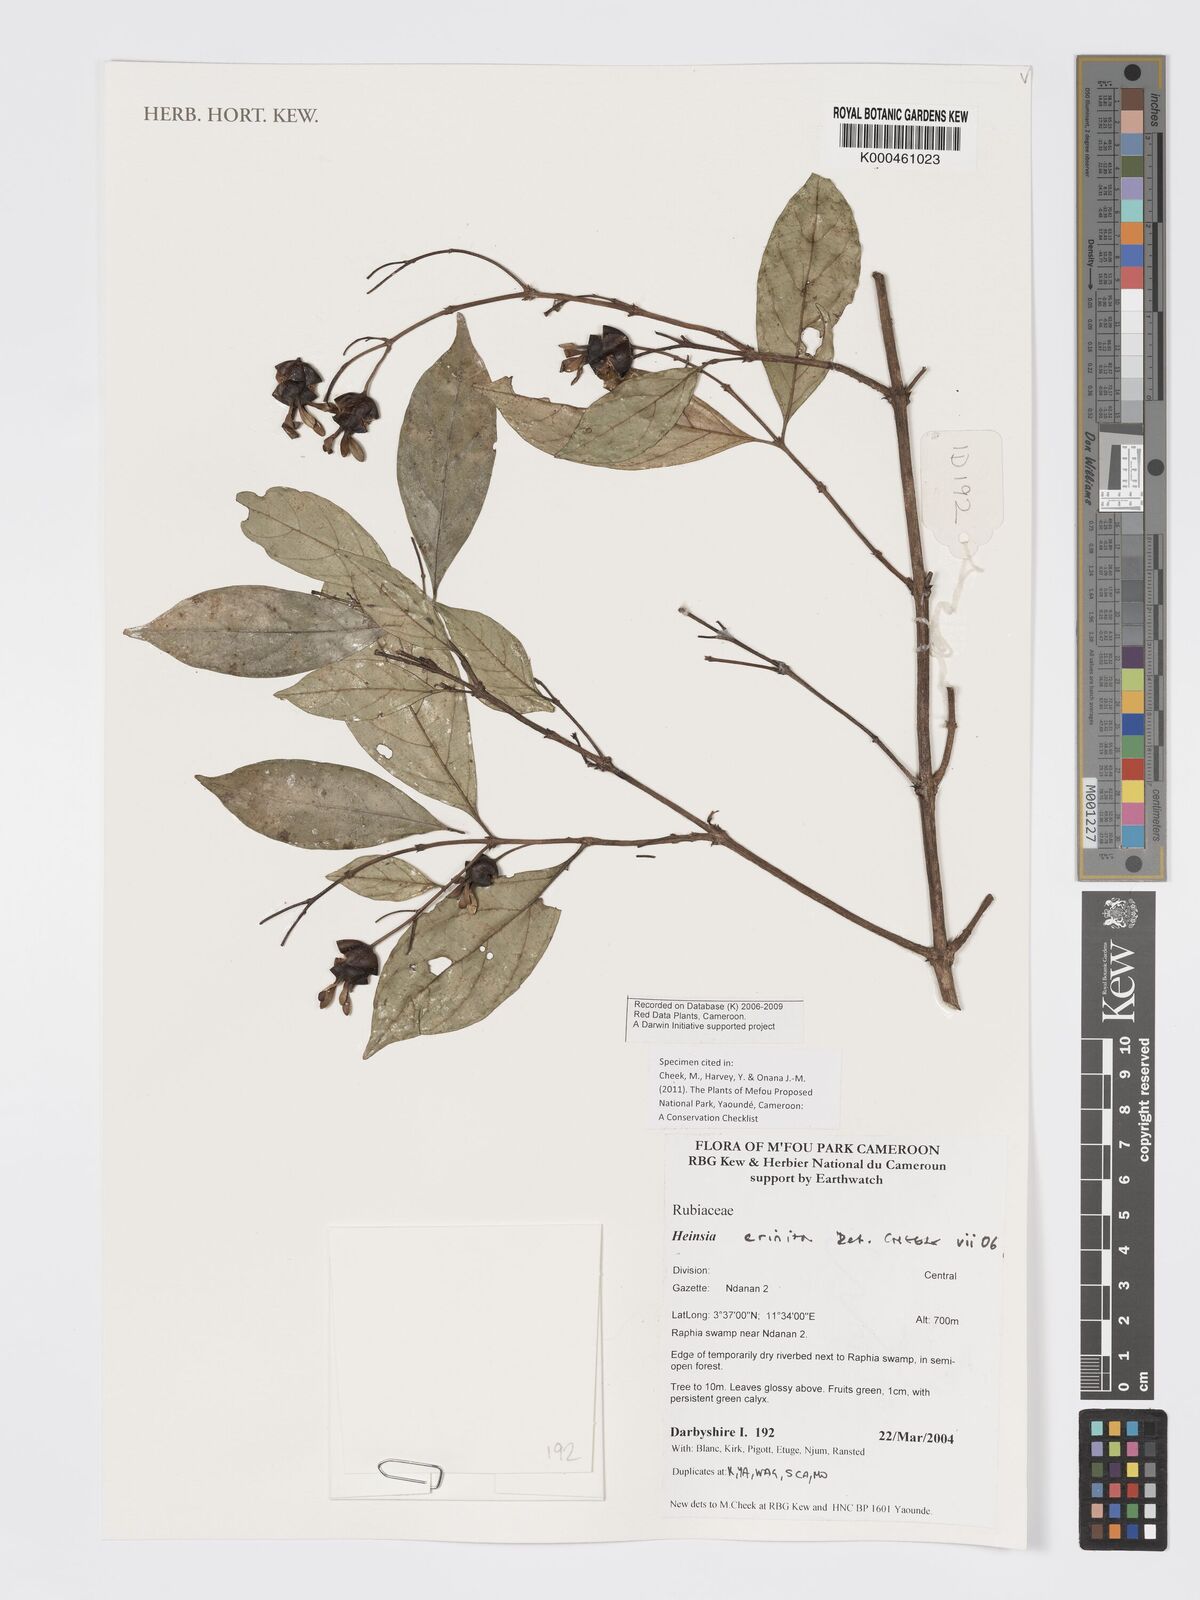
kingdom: Plantae
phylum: Tracheophyta
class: Magnoliopsida
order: Gentianales
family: Rubiaceae
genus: Heinsia
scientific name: Heinsia crinita
